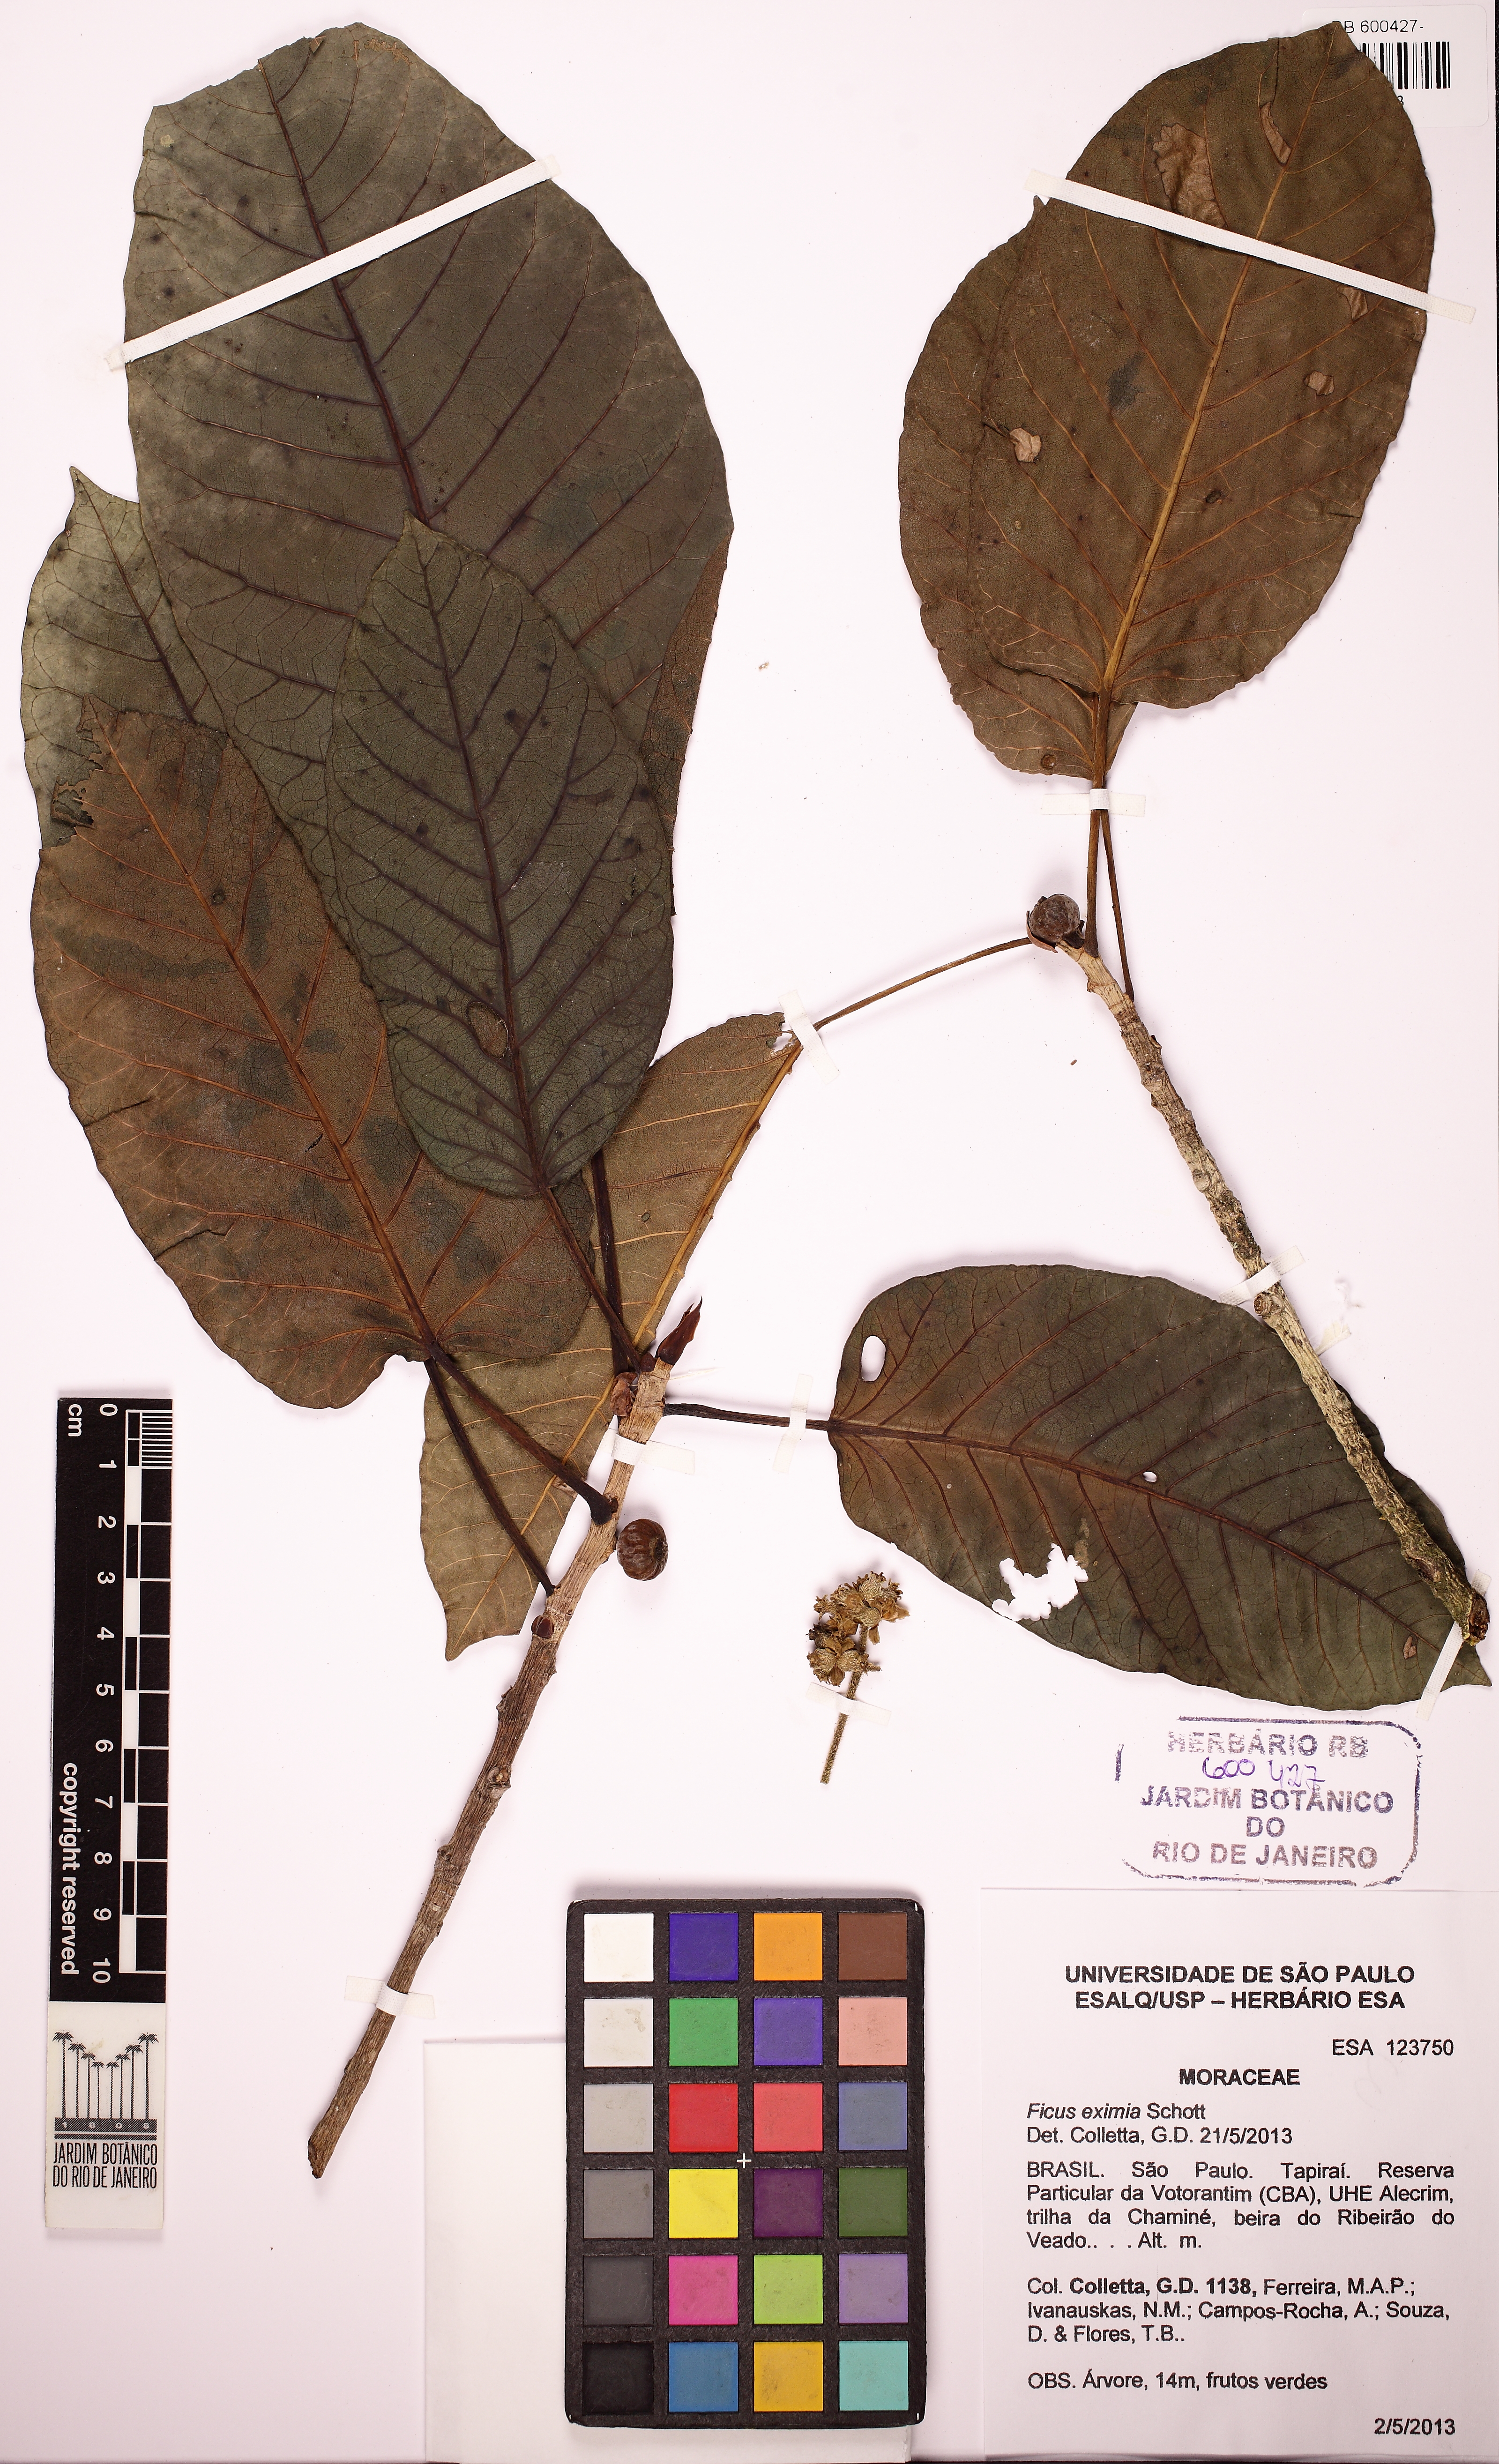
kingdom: Plantae
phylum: Tracheophyta
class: Magnoliopsida
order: Rosales
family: Moraceae
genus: Ficus
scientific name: Ficus eximia
